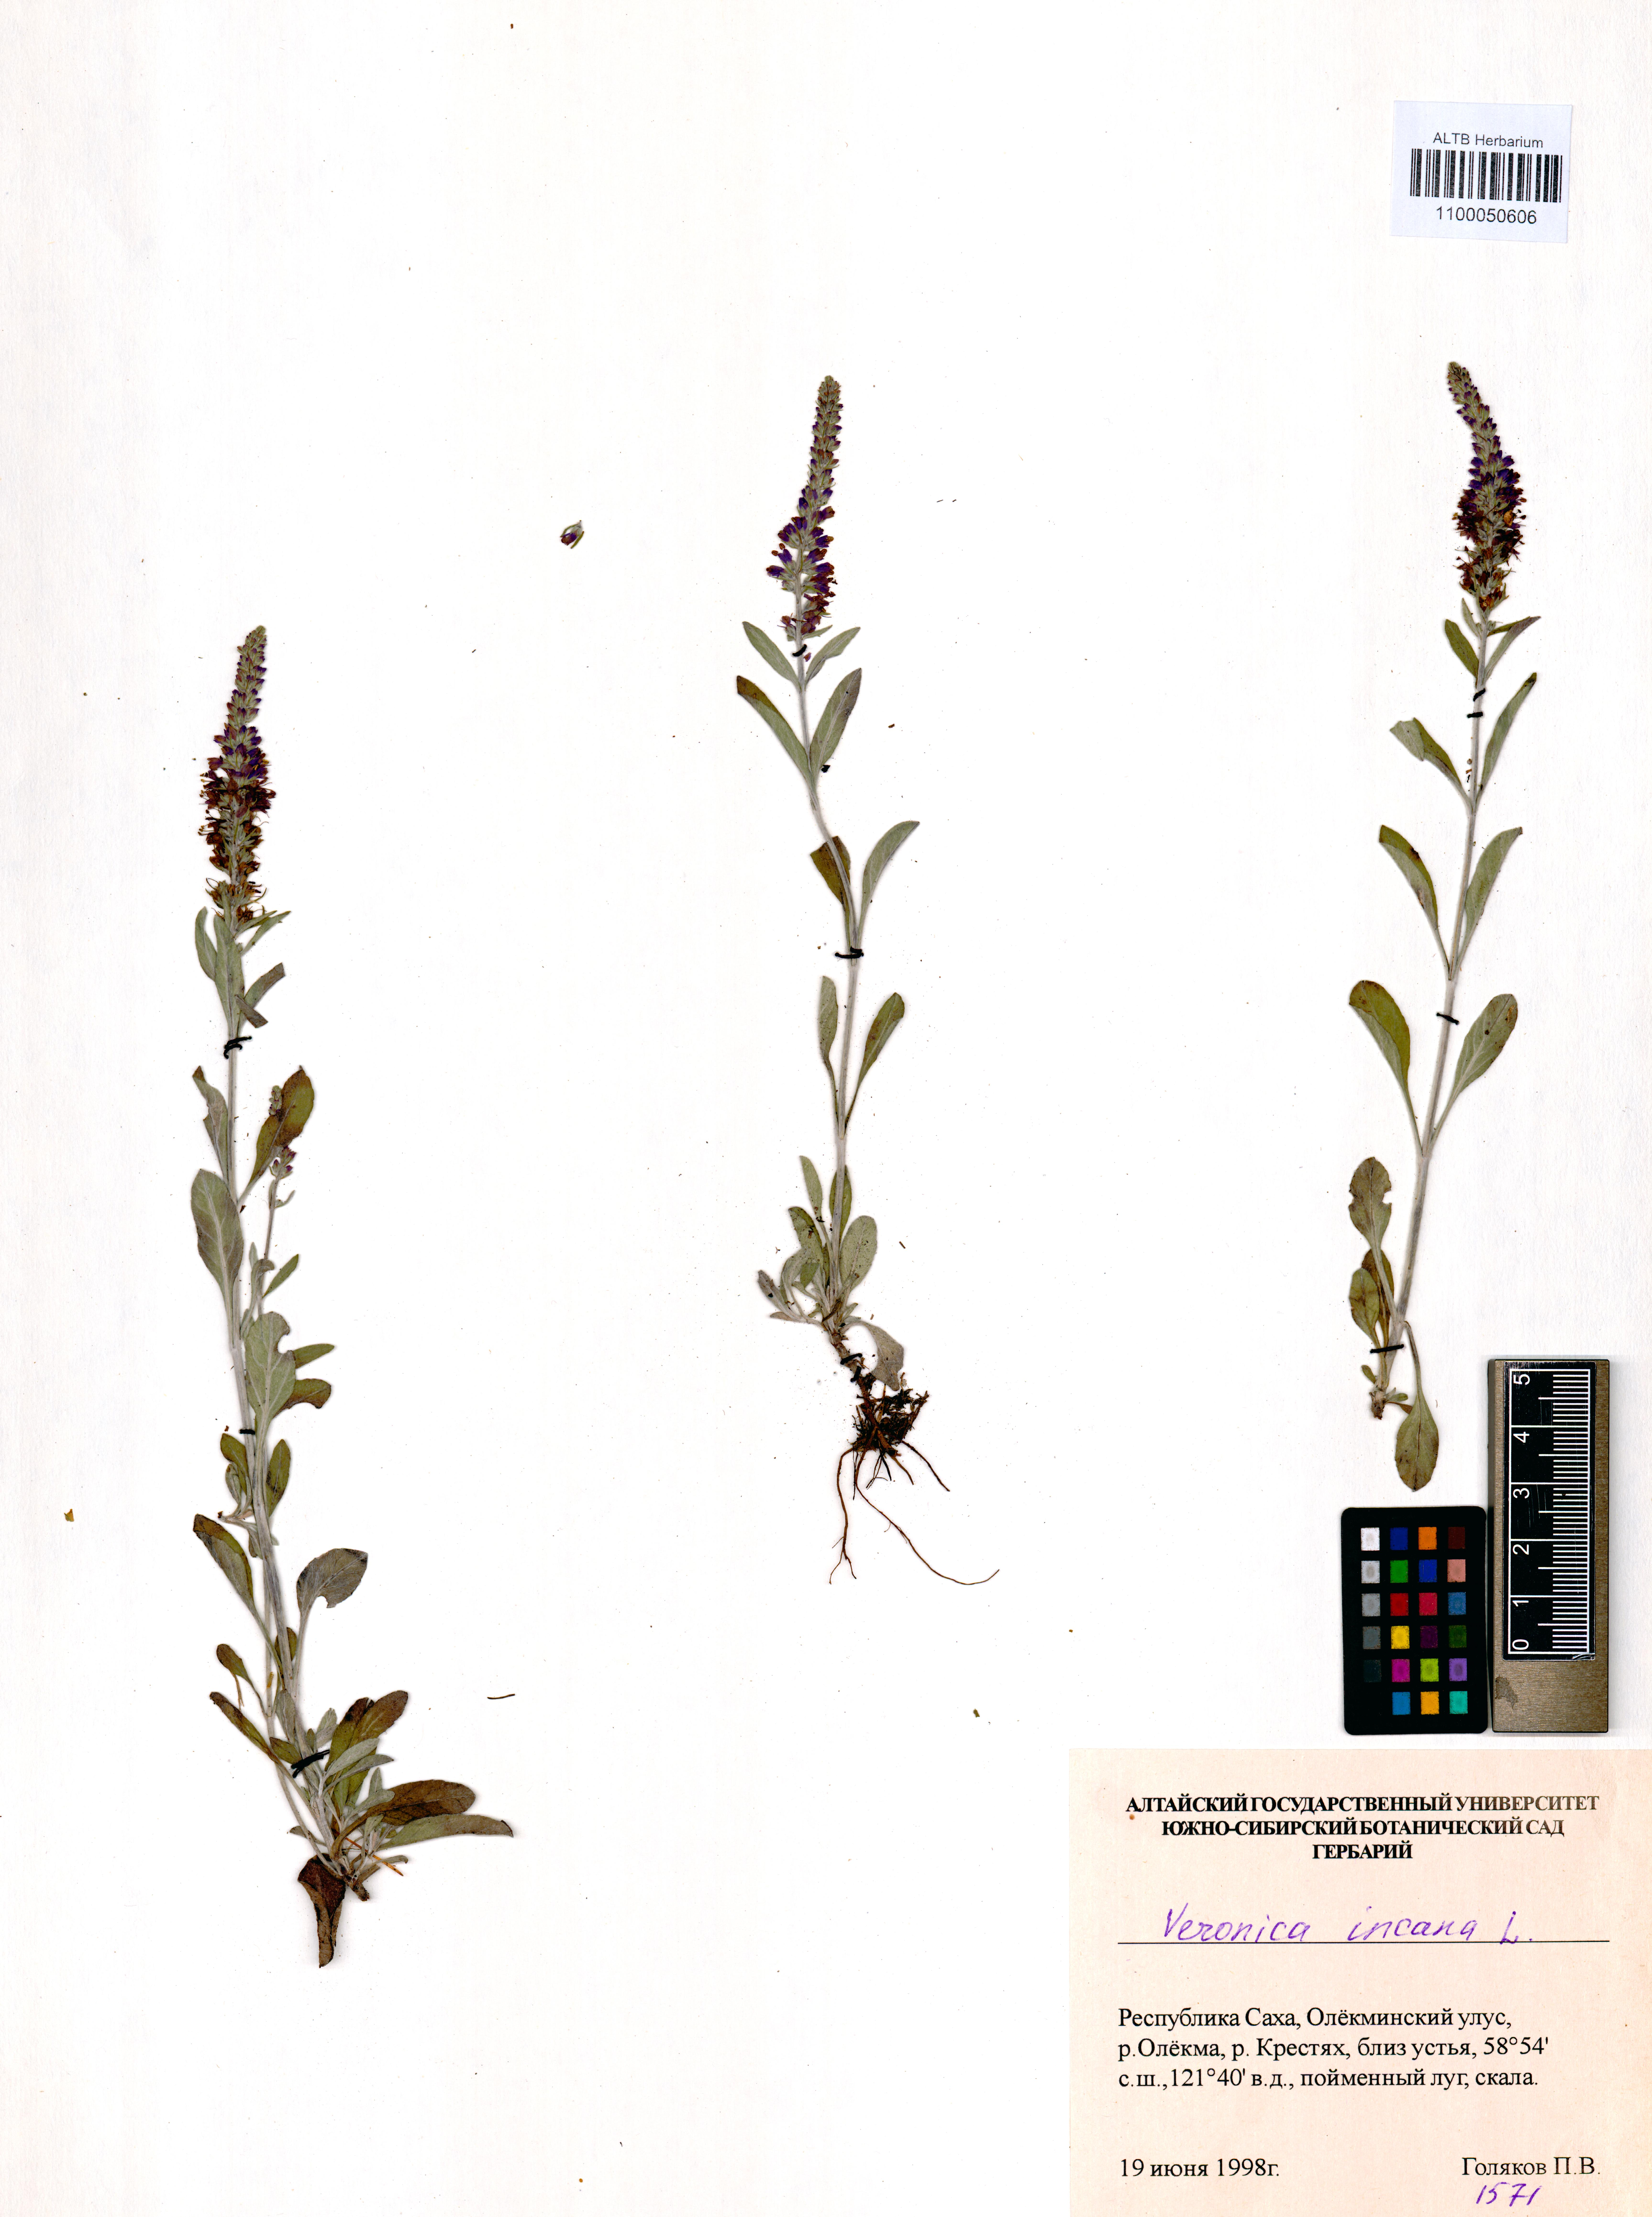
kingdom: Plantae
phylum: Tracheophyta
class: Magnoliopsida
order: Lamiales
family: Plantaginaceae
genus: Veronica
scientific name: Veronica incana
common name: Silver speedwell
